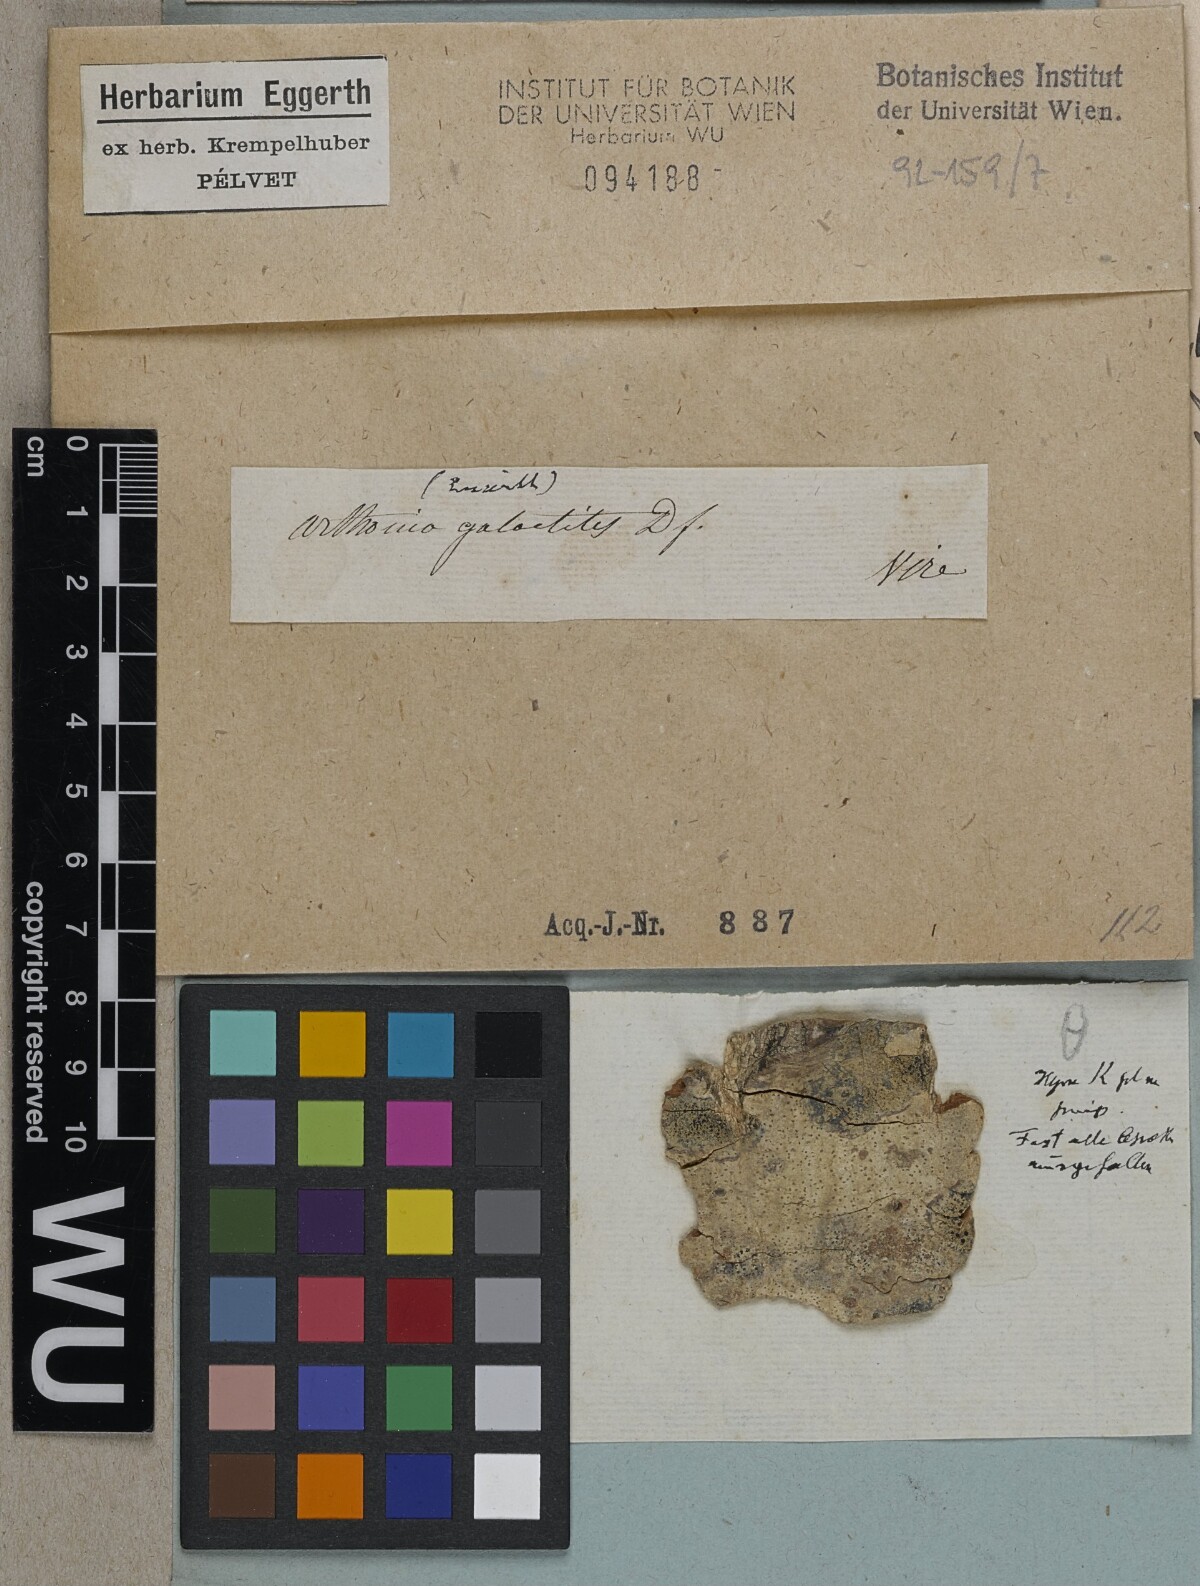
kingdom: Fungi
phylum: Ascomycota
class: Arthoniomycetes
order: Arthoniales
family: Arthoniaceae
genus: Arthonia
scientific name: Arthonia galactites
